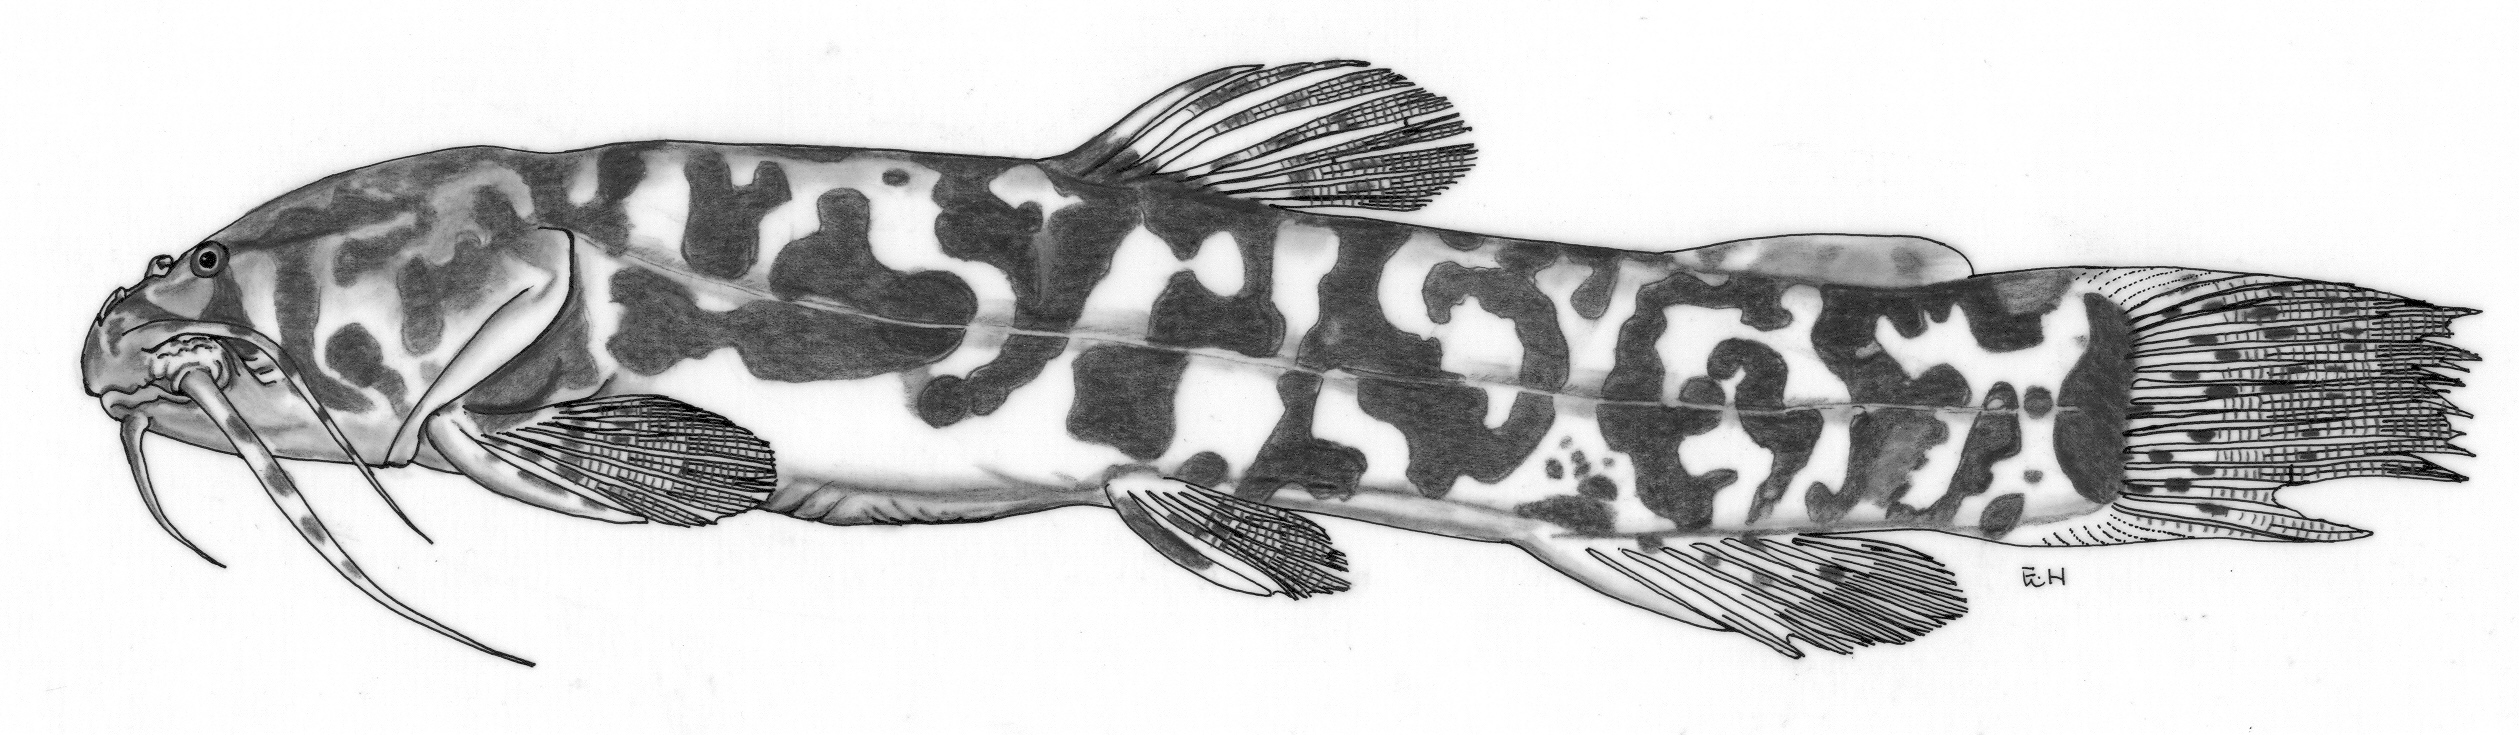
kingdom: Animalia
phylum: Chordata
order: Siluriformes
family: Amphiliidae
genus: Paramphilius
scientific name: Paramphilius baudoni
